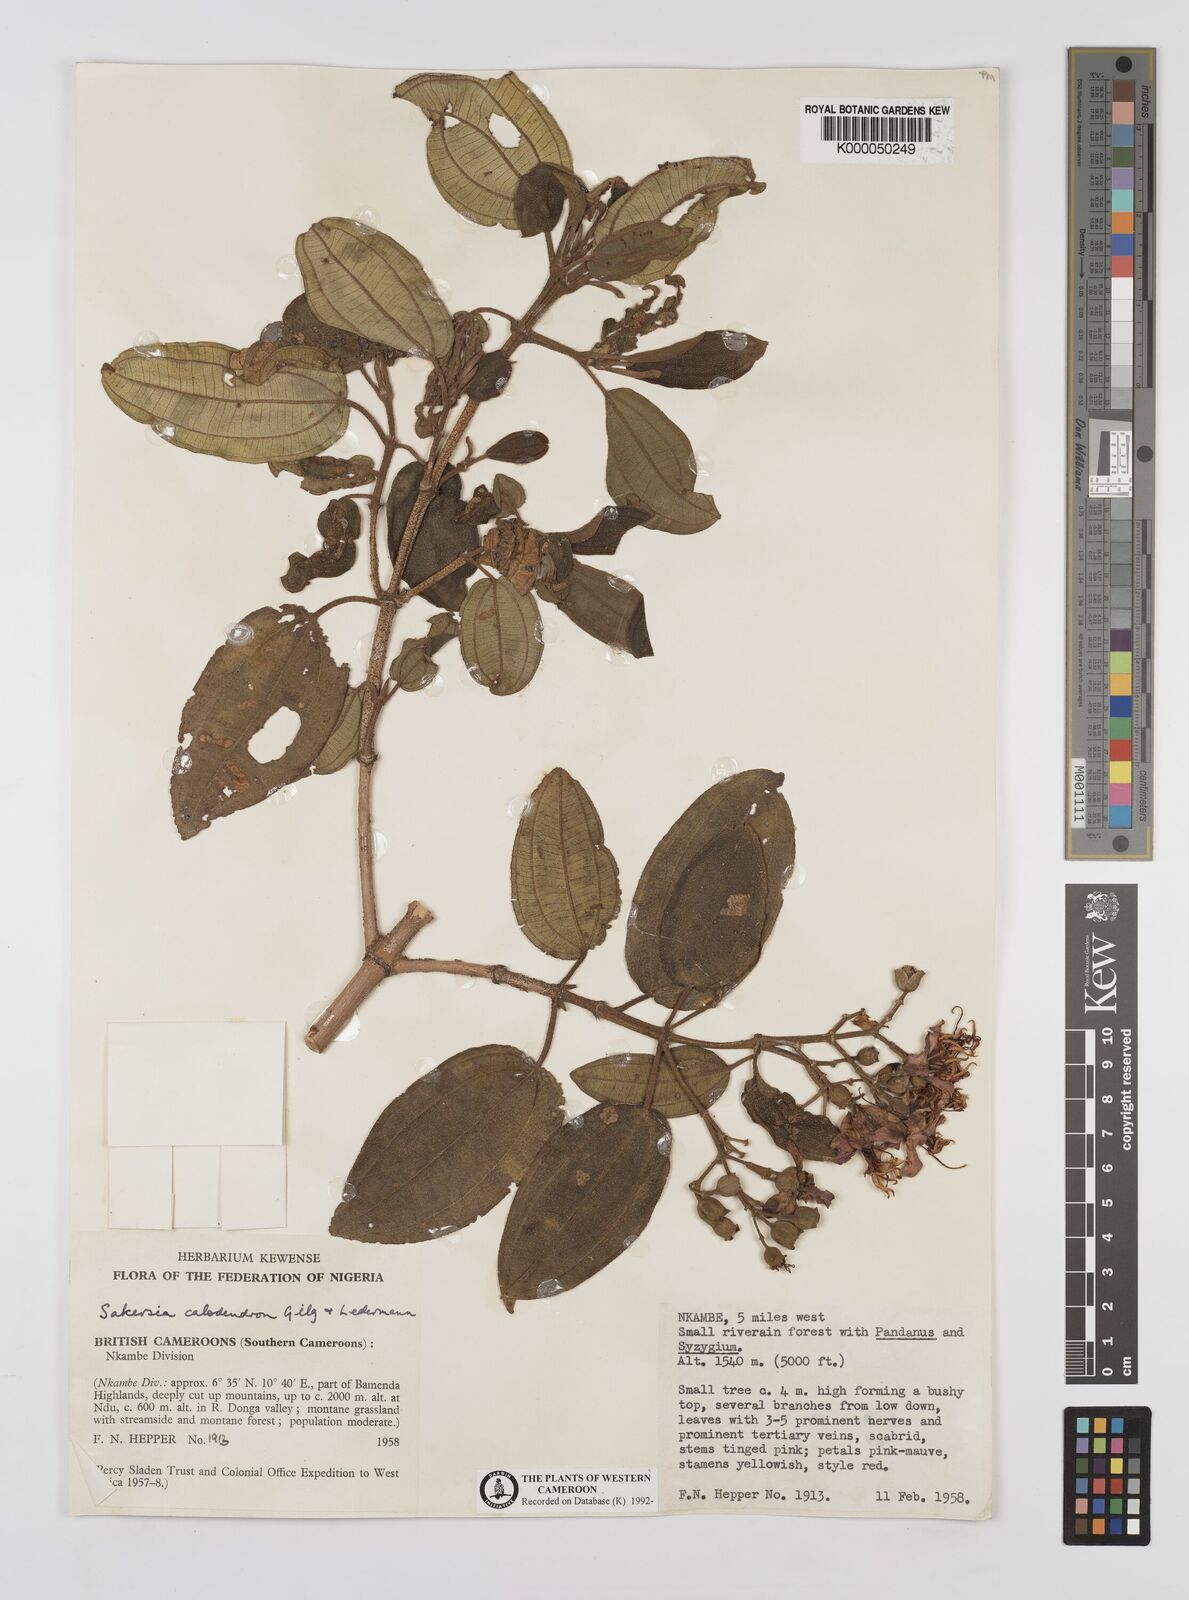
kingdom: Plantae
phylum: Tracheophyta
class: Magnoliopsida
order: Myrtales
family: Melastomataceae
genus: Dichaetanthera
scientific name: Dichaetanthera
